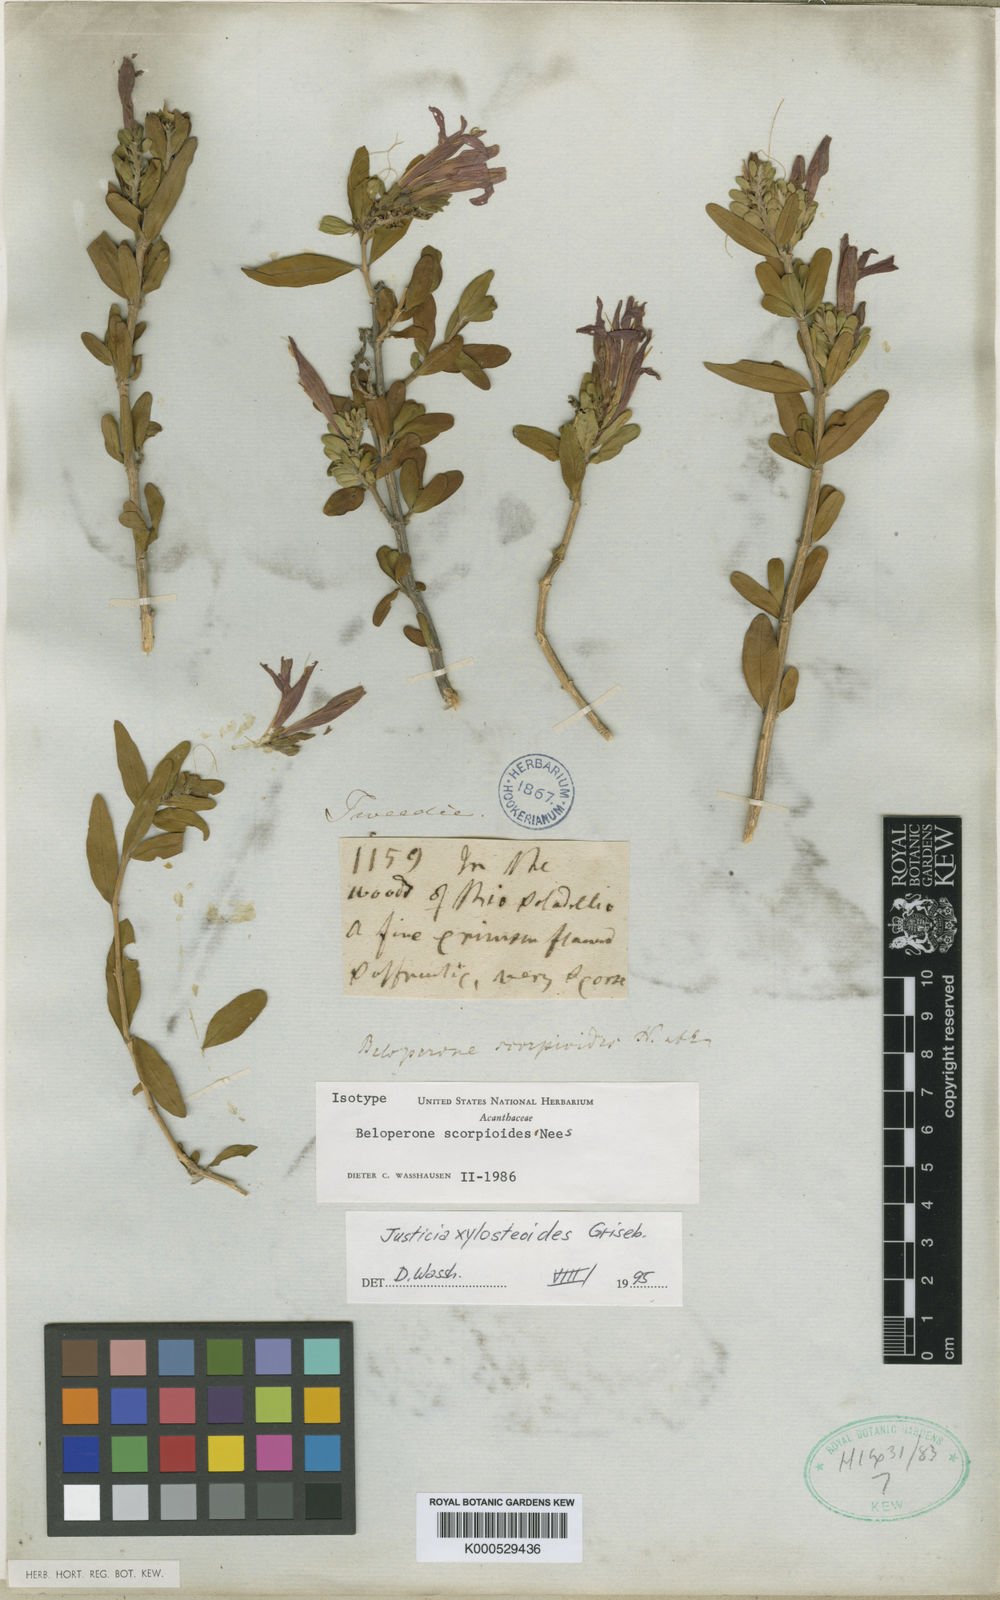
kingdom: Plantae
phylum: Tracheophyta
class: Magnoliopsida
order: Lamiales
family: Acanthaceae
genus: Justicia
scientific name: Justicia xylosteoides
